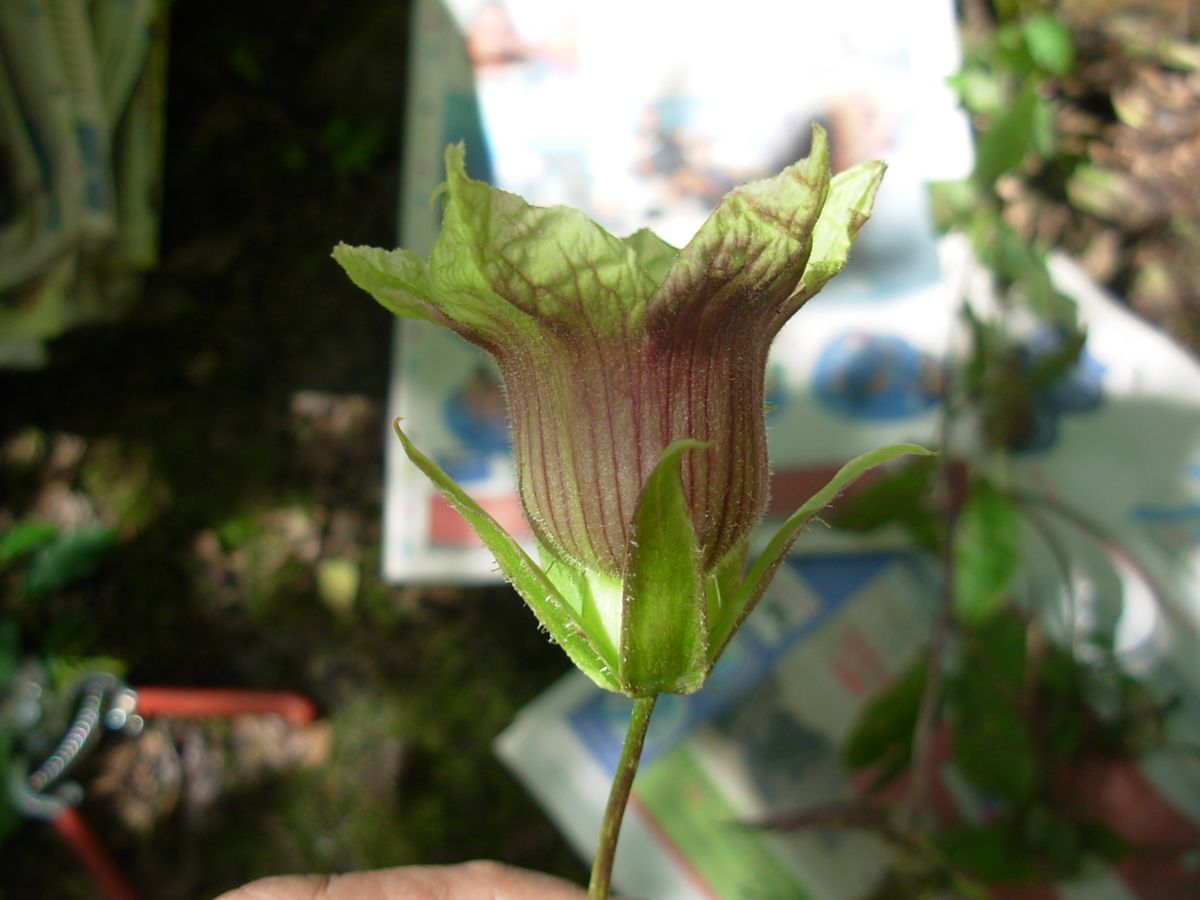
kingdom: Plantae
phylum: Tracheophyta
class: Magnoliopsida
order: Ericales
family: Polemoniaceae
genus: Cobaea
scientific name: Cobaea lutea
